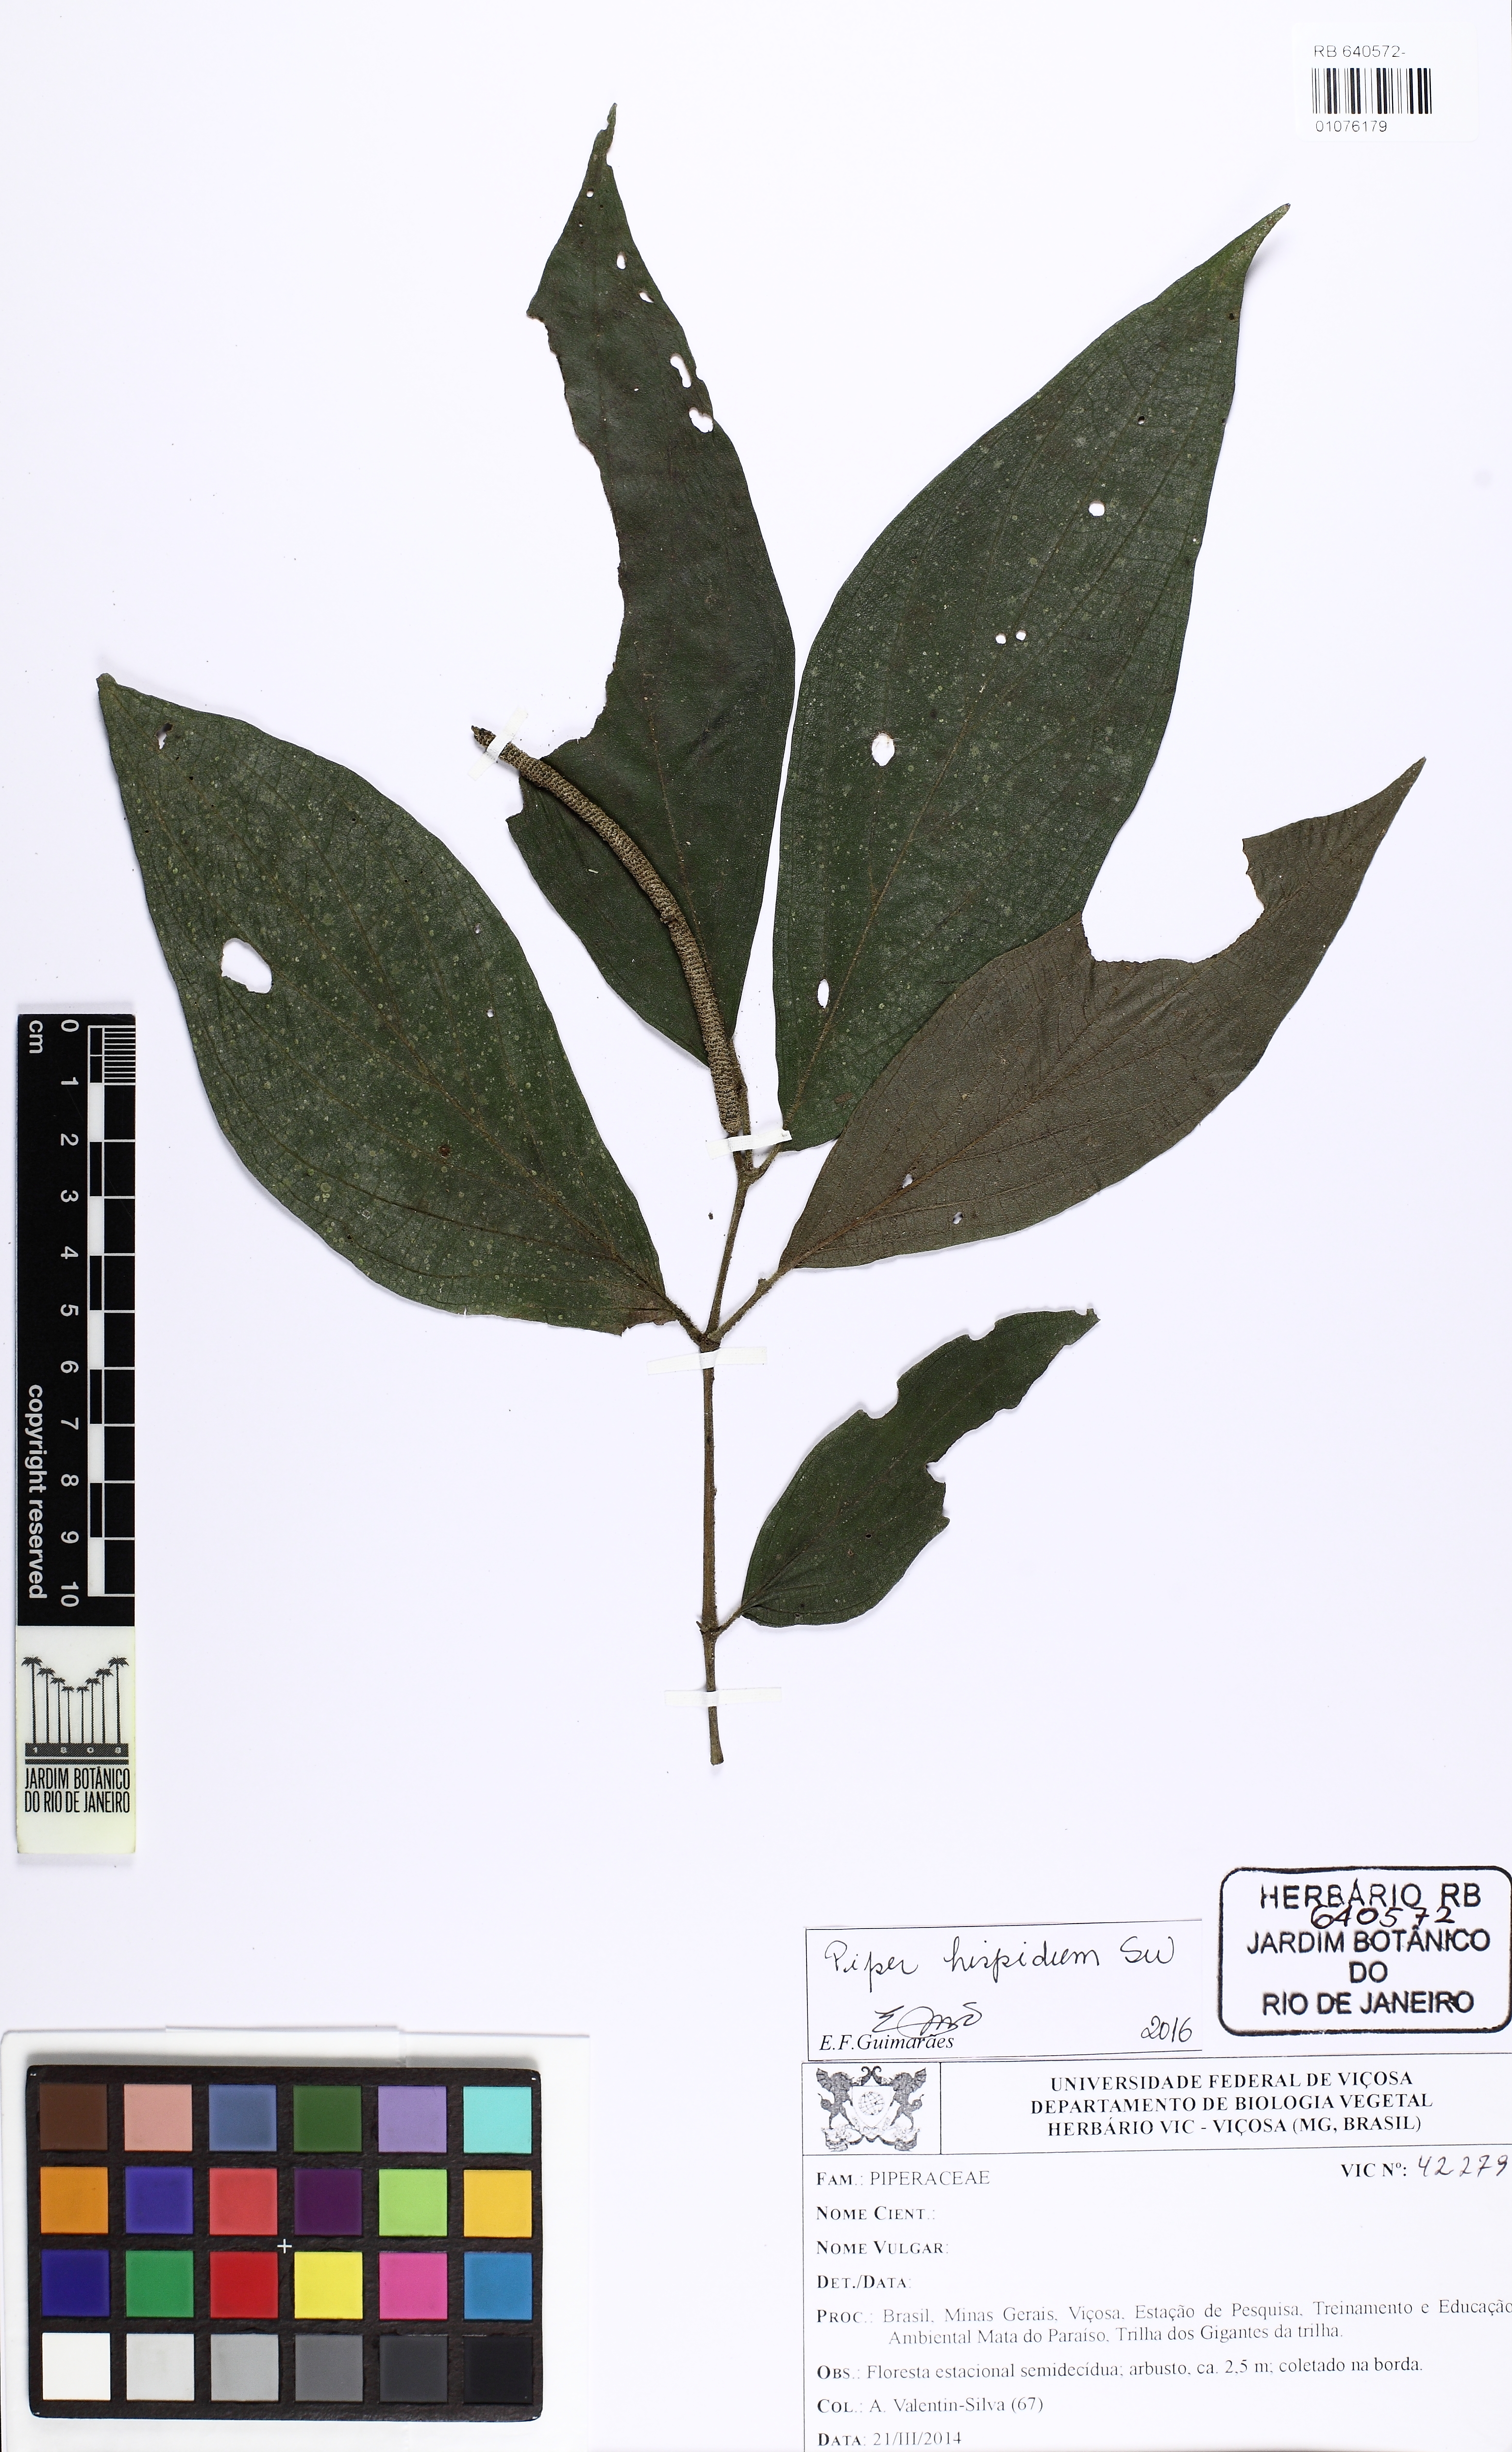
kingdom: Plantae
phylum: Tracheophyta
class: Magnoliopsida
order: Piperales
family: Piperaceae
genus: Piper
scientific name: Piper hispidum
